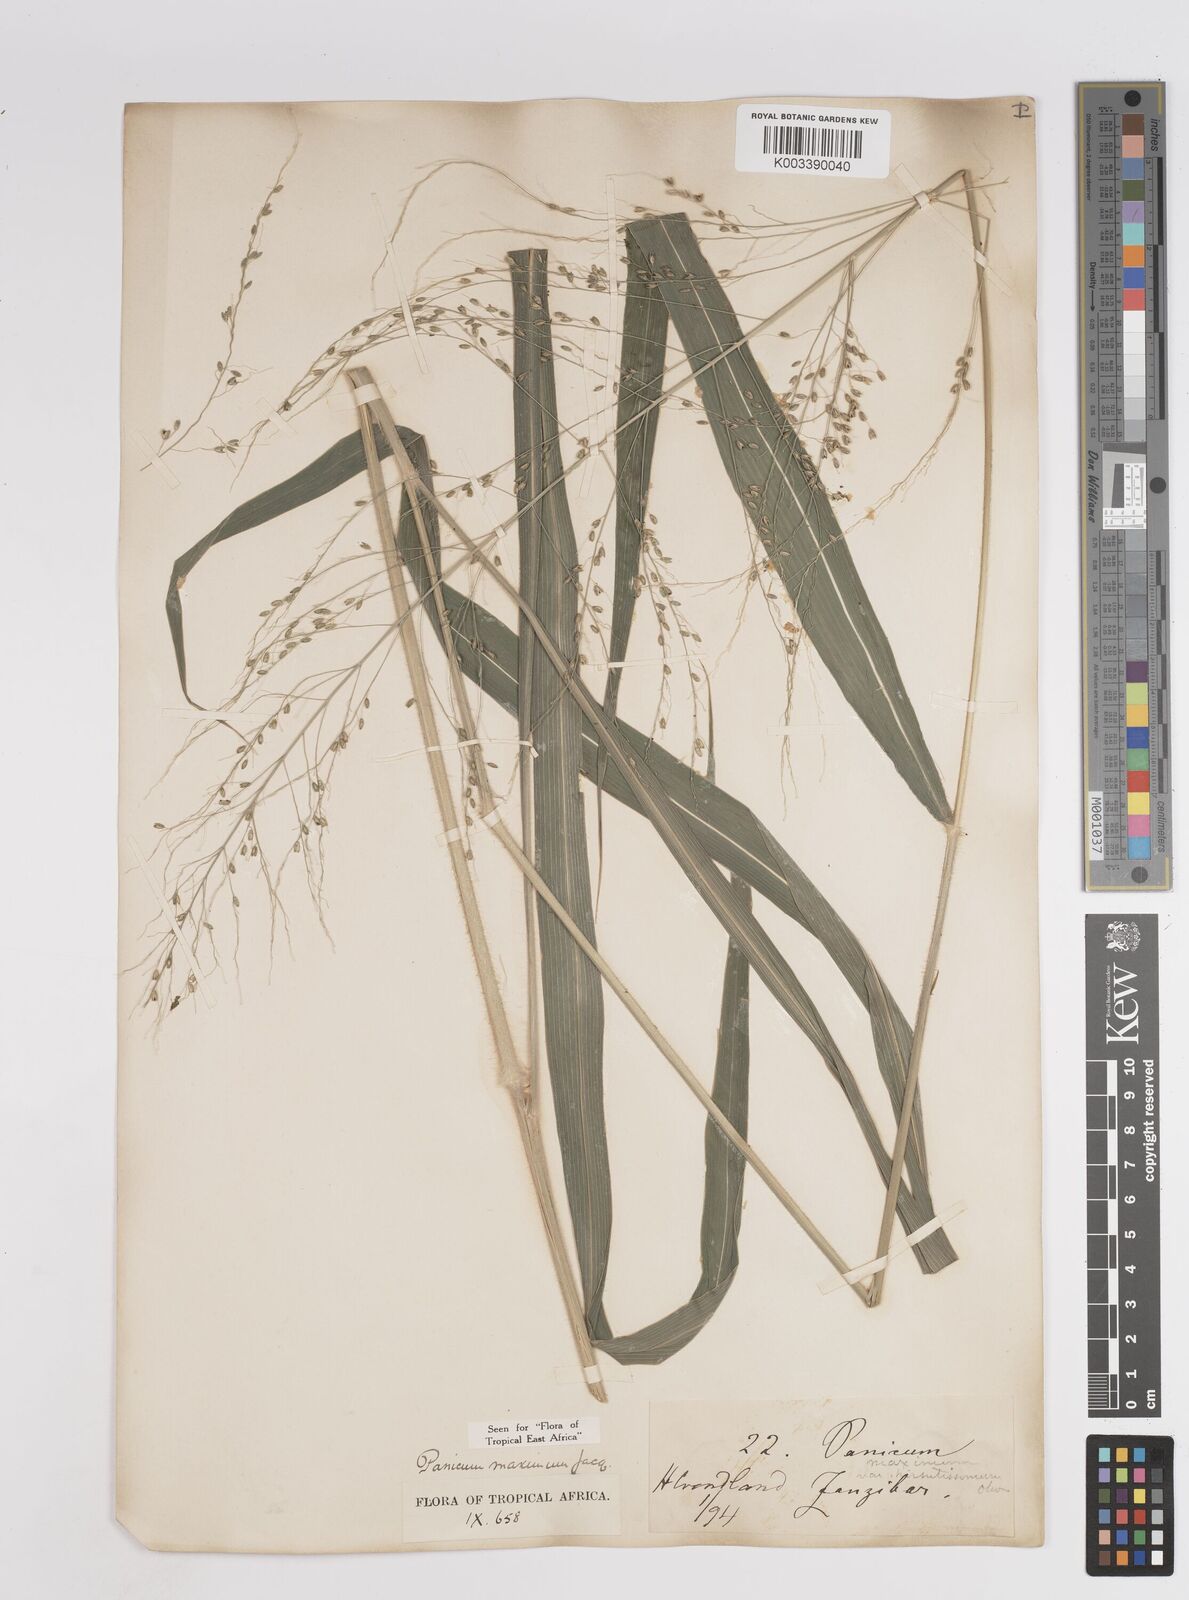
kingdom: Plantae
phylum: Tracheophyta
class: Liliopsida
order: Poales
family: Poaceae
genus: Megathyrsus
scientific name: Megathyrsus maximus
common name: Guineagrass
